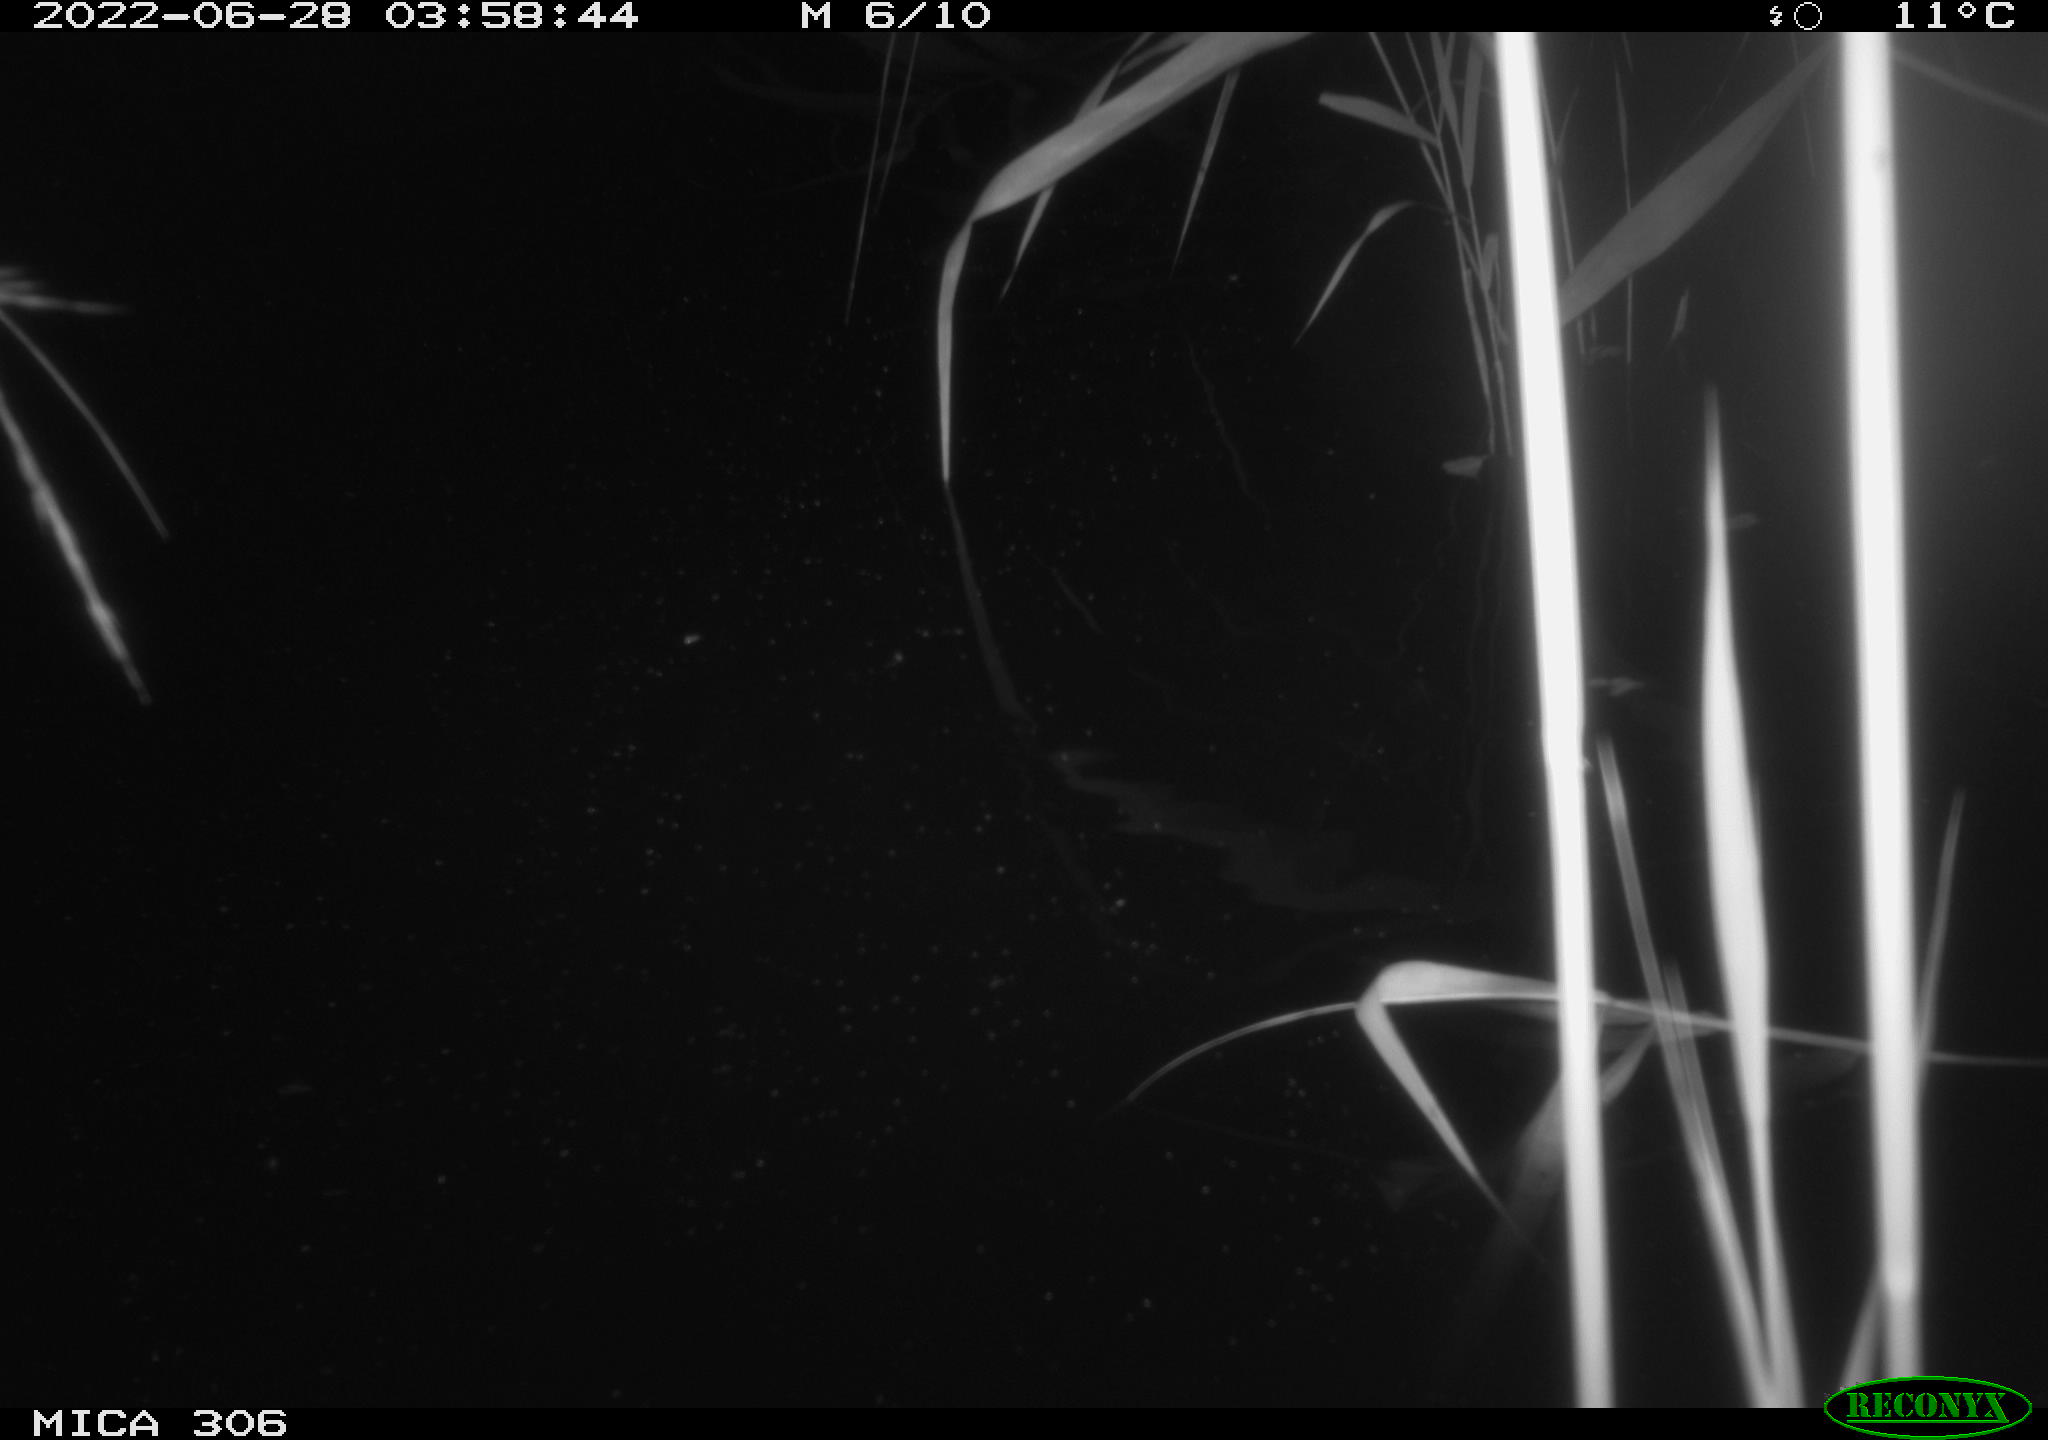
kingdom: Animalia
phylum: Chordata
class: Mammalia
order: Rodentia
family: Cricetidae
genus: Ondatra
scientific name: Ondatra zibethicus
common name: Muskrat
